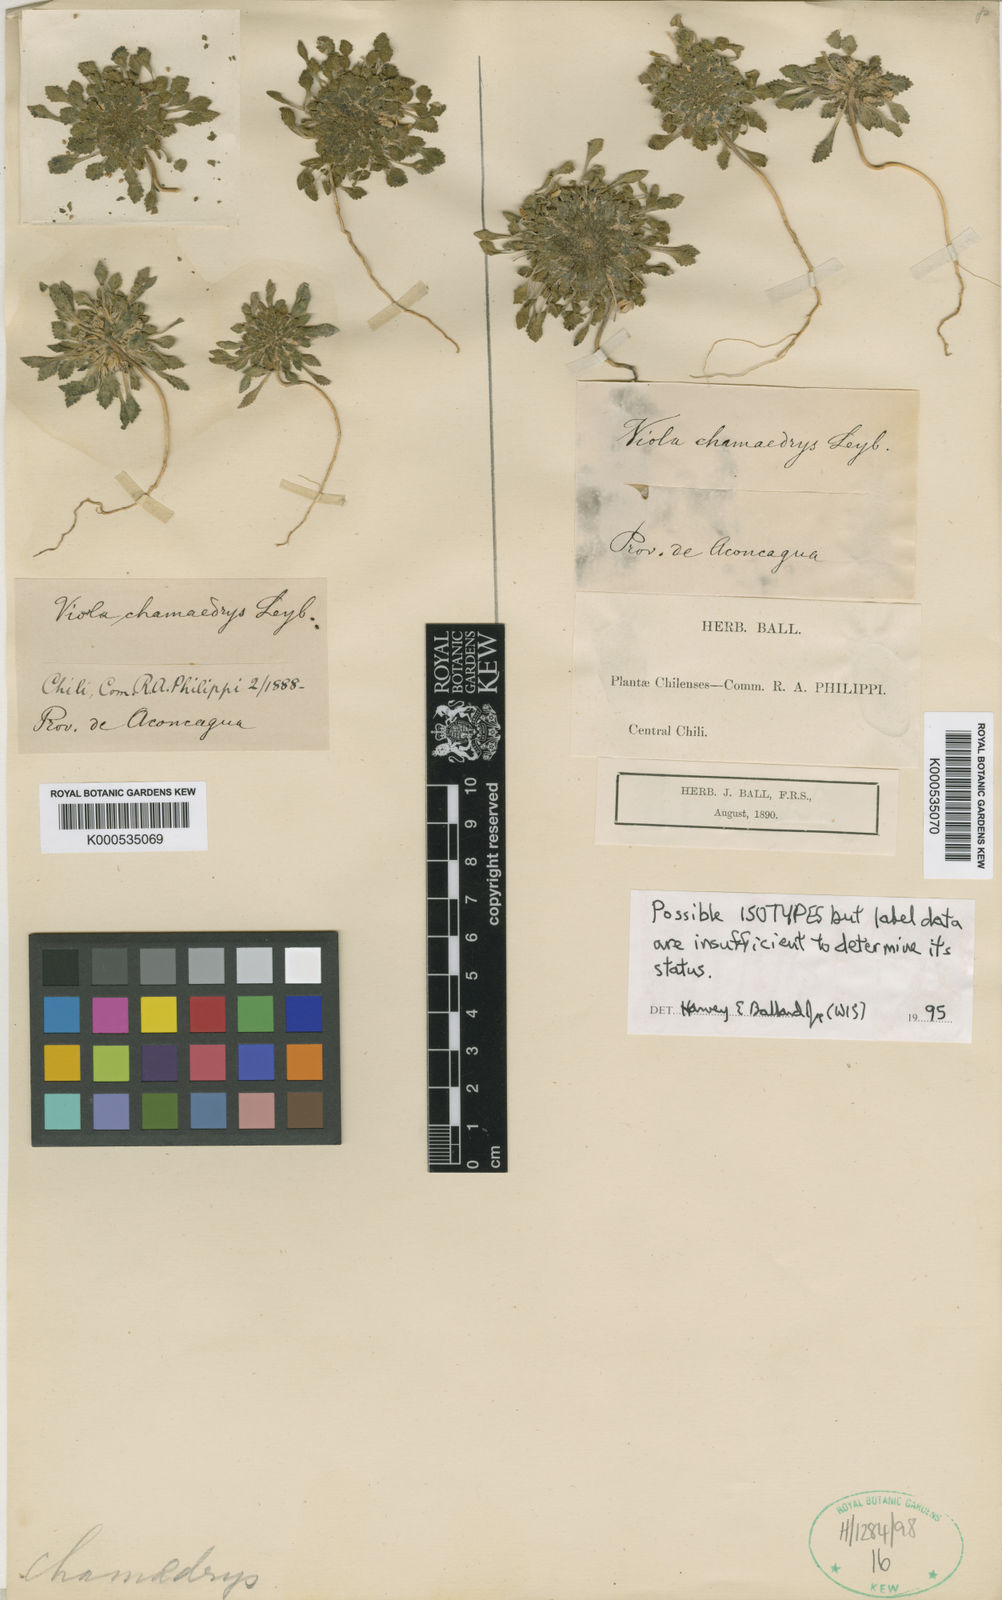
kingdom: Plantae
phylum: Tracheophyta
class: Magnoliopsida
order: Malpighiales
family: Violaceae
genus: Viola
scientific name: Viola chamaedrys
